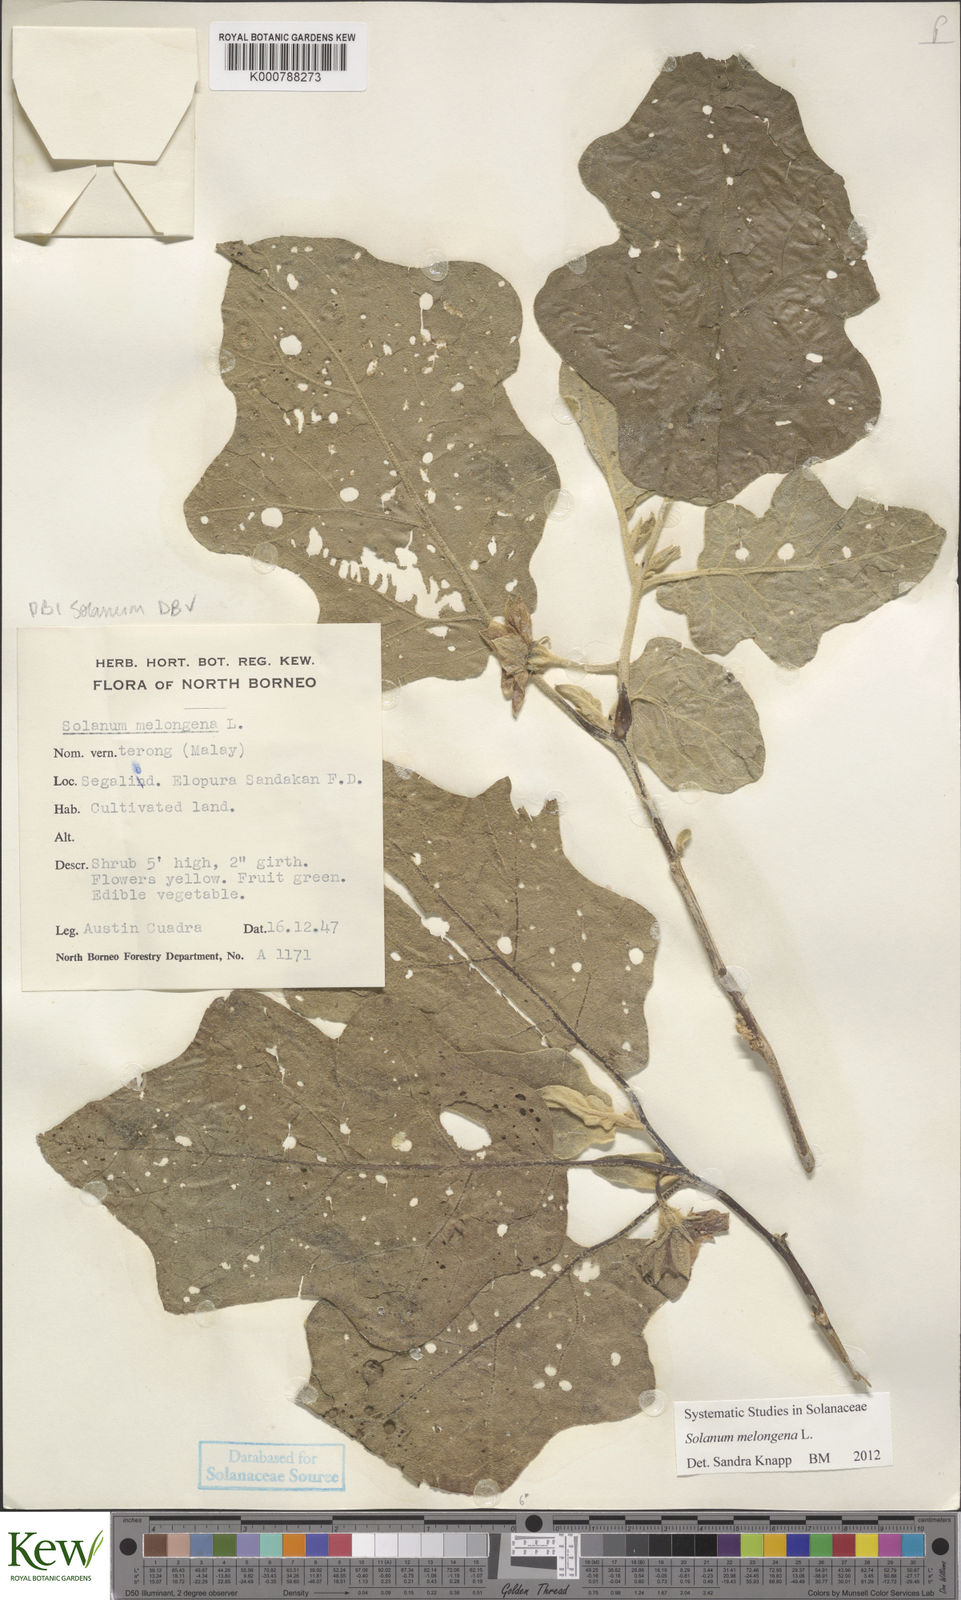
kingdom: Plantae
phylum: Tracheophyta
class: Magnoliopsida
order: Solanales
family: Solanaceae
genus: Solanum
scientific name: Solanum melongena
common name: Eggplant
